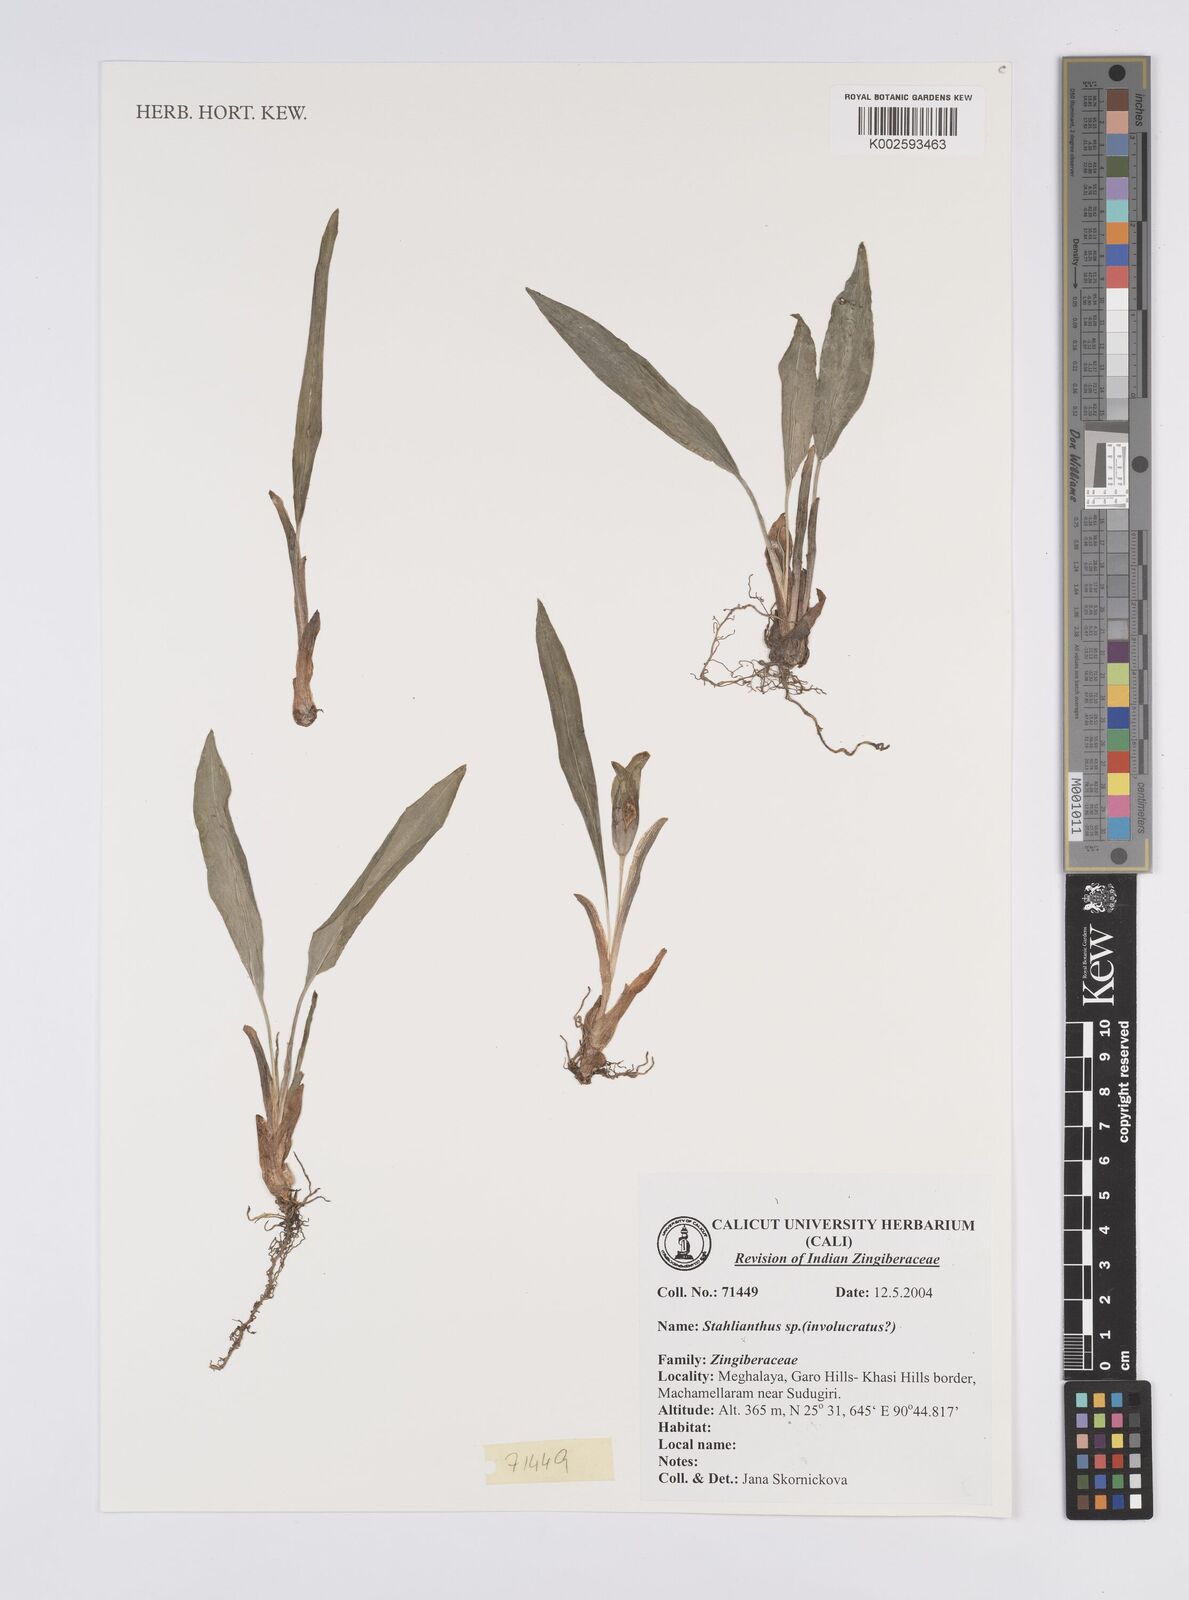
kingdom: Plantae
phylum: Tracheophyta
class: Liliopsida
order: Zingiberales
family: Zingiberaceae
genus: Curcuma
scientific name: Curcuma involucrata
